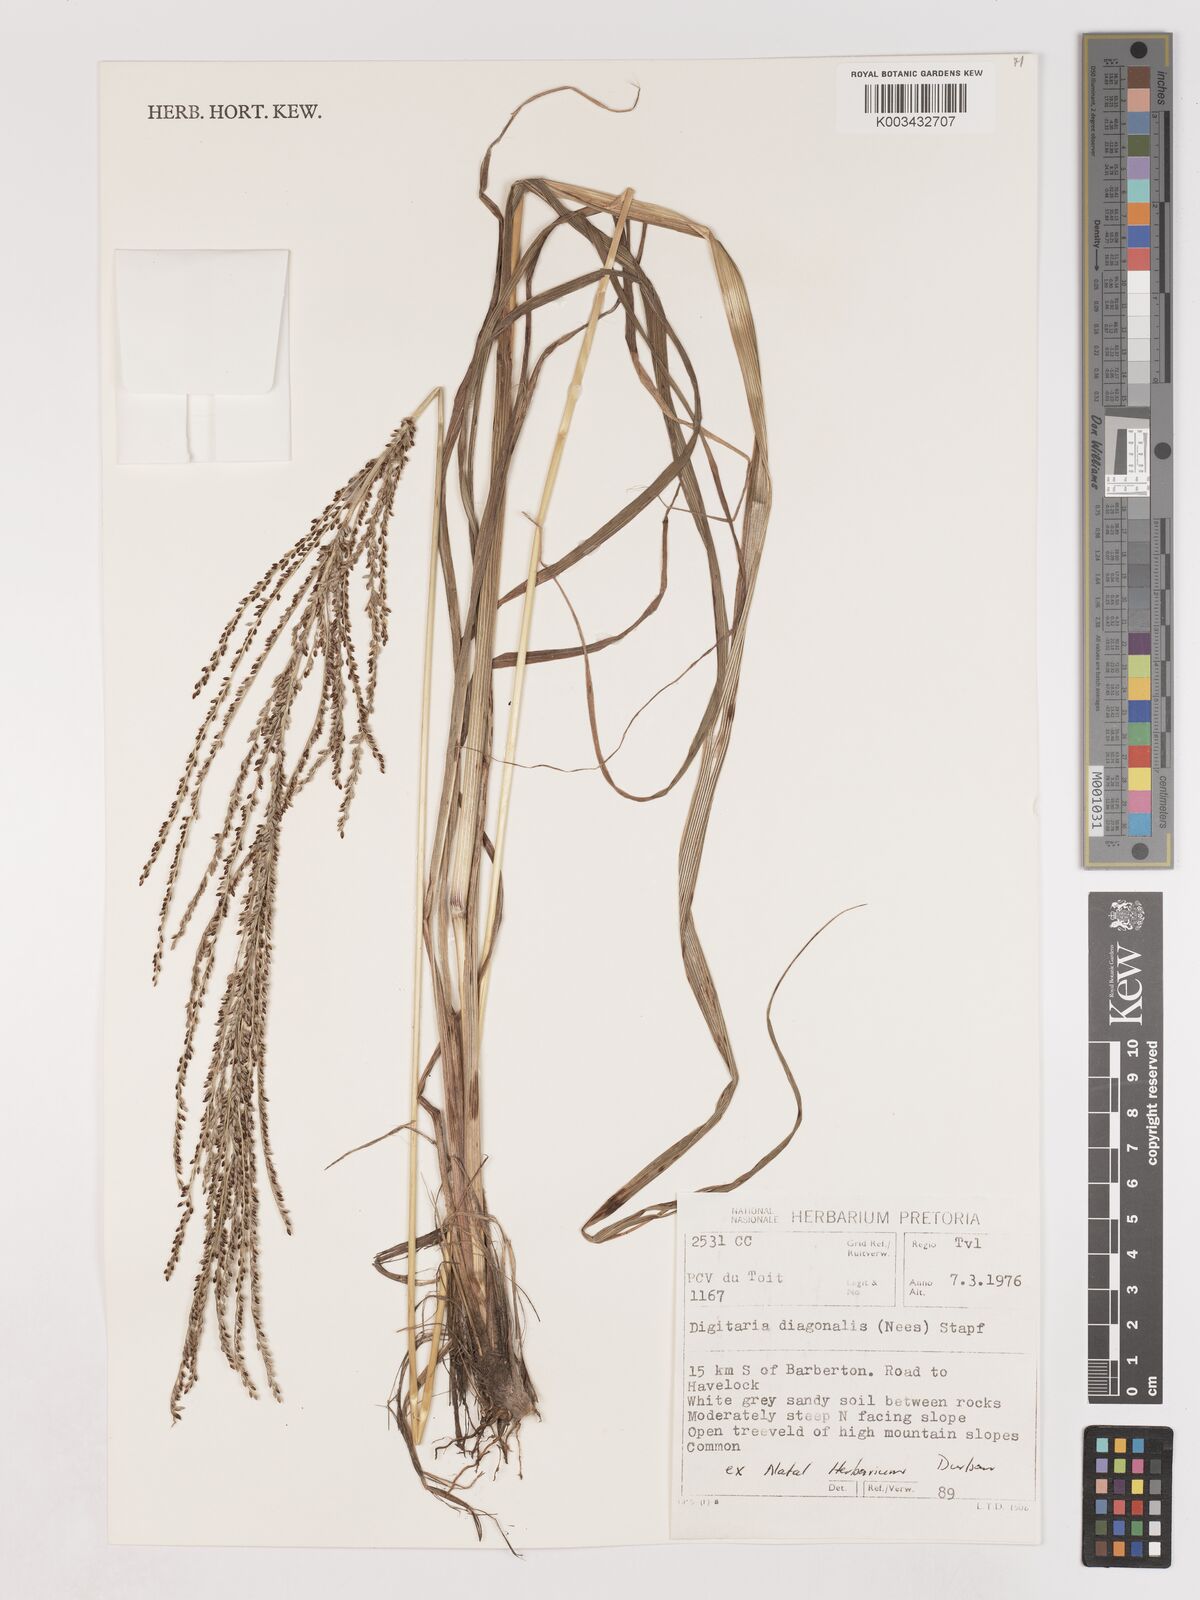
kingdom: Plantae
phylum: Tracheophyta
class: Liliopsida
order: Poales
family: Poaceae
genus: Digitaria
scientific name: Digitaria diagonalis
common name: Brown-seed finger grass
